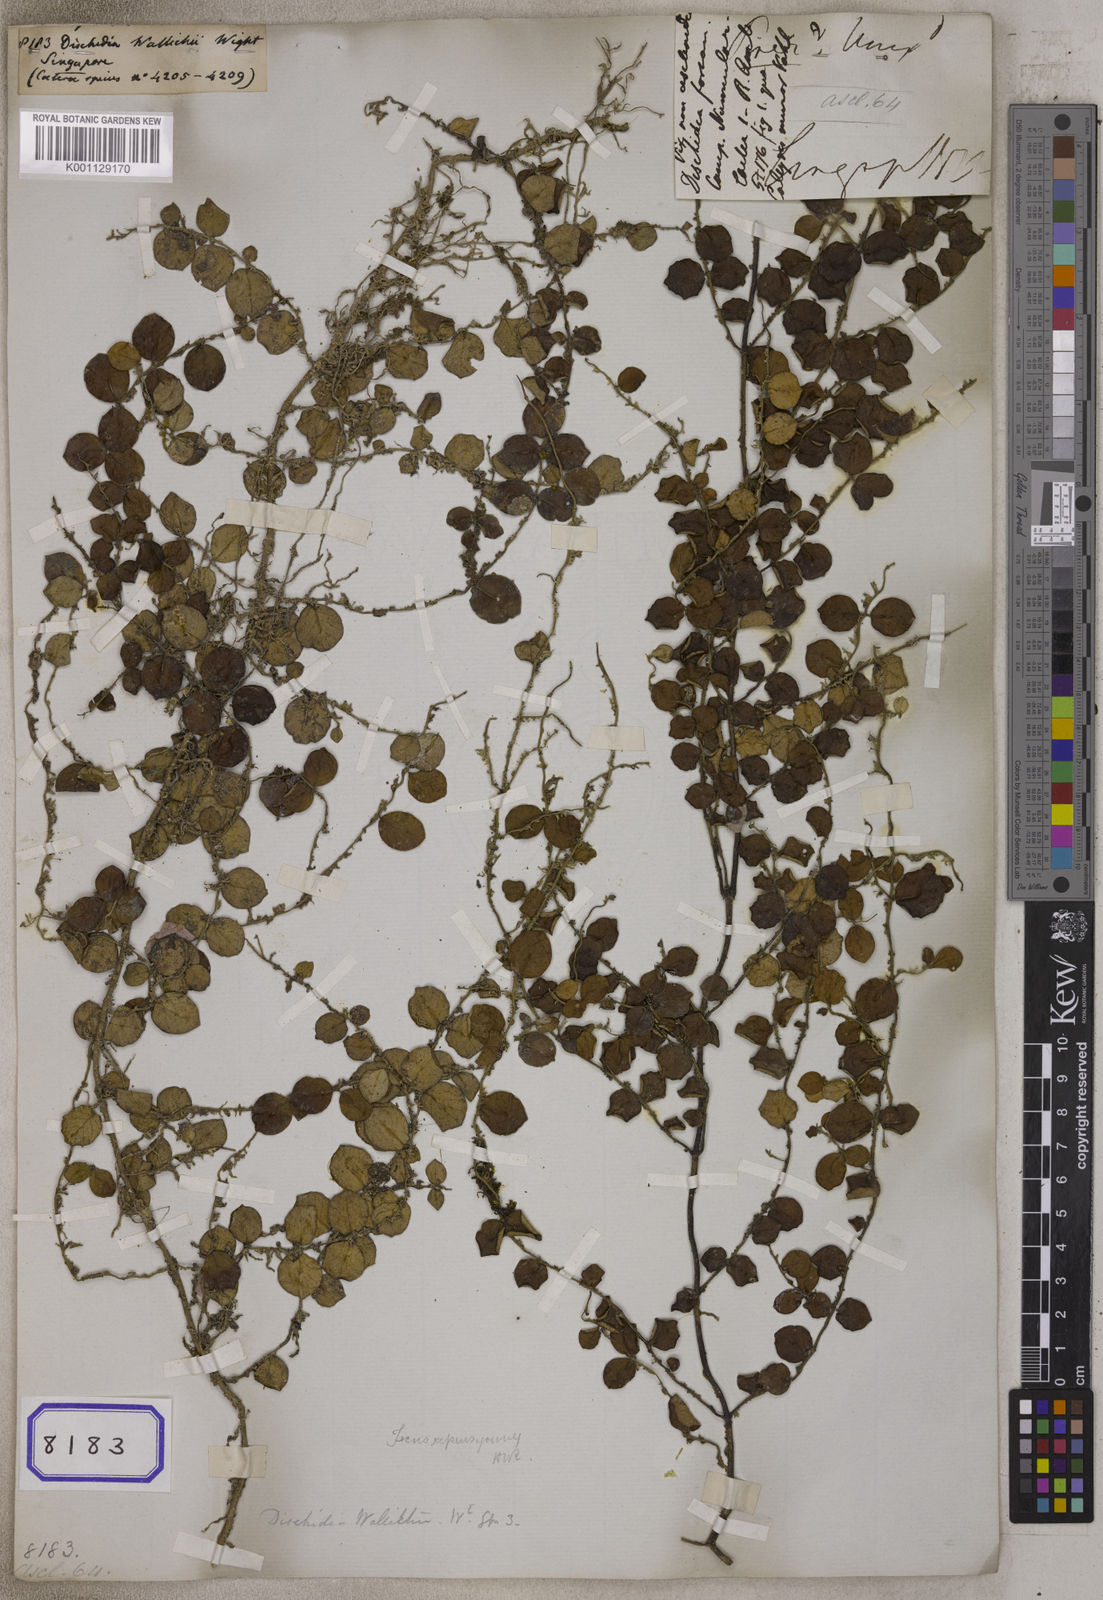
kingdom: Plantae
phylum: Tracheophyta
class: Magnoliopsida
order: Gentianales
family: Apocynaceae
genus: Micrechites
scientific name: Micrechites serpyllifolia
